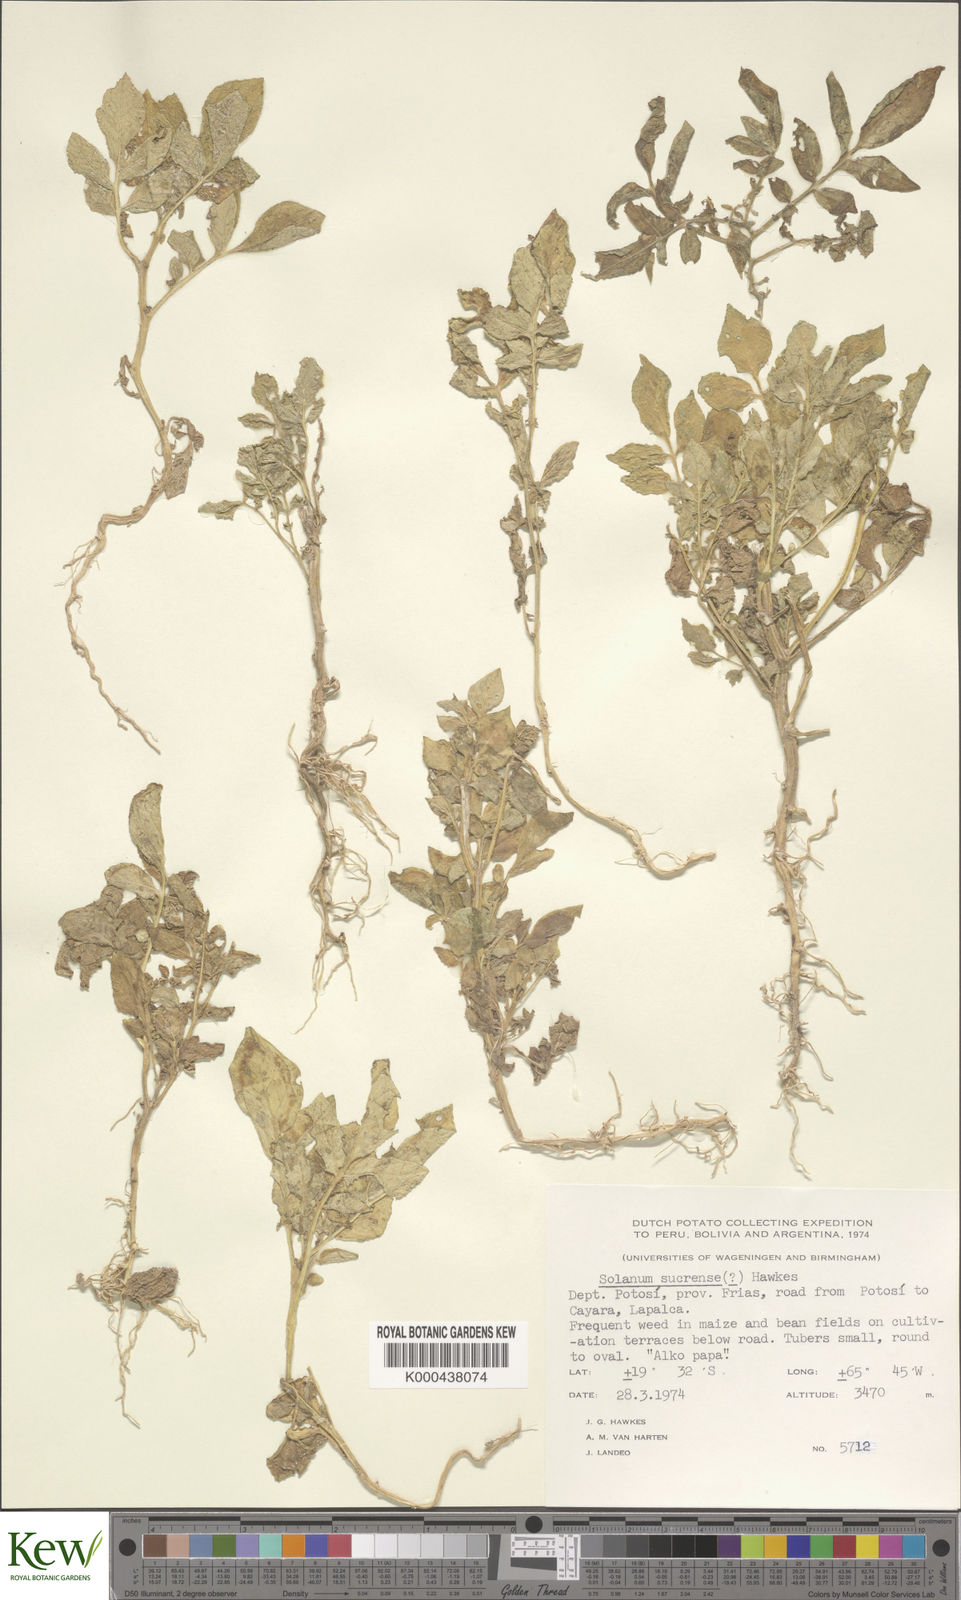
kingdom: Plantae
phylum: Tracheophyta
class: Magnoliopsida
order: Solanales
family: Solanaceae
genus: Solanum
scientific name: Solanum brevicaule
